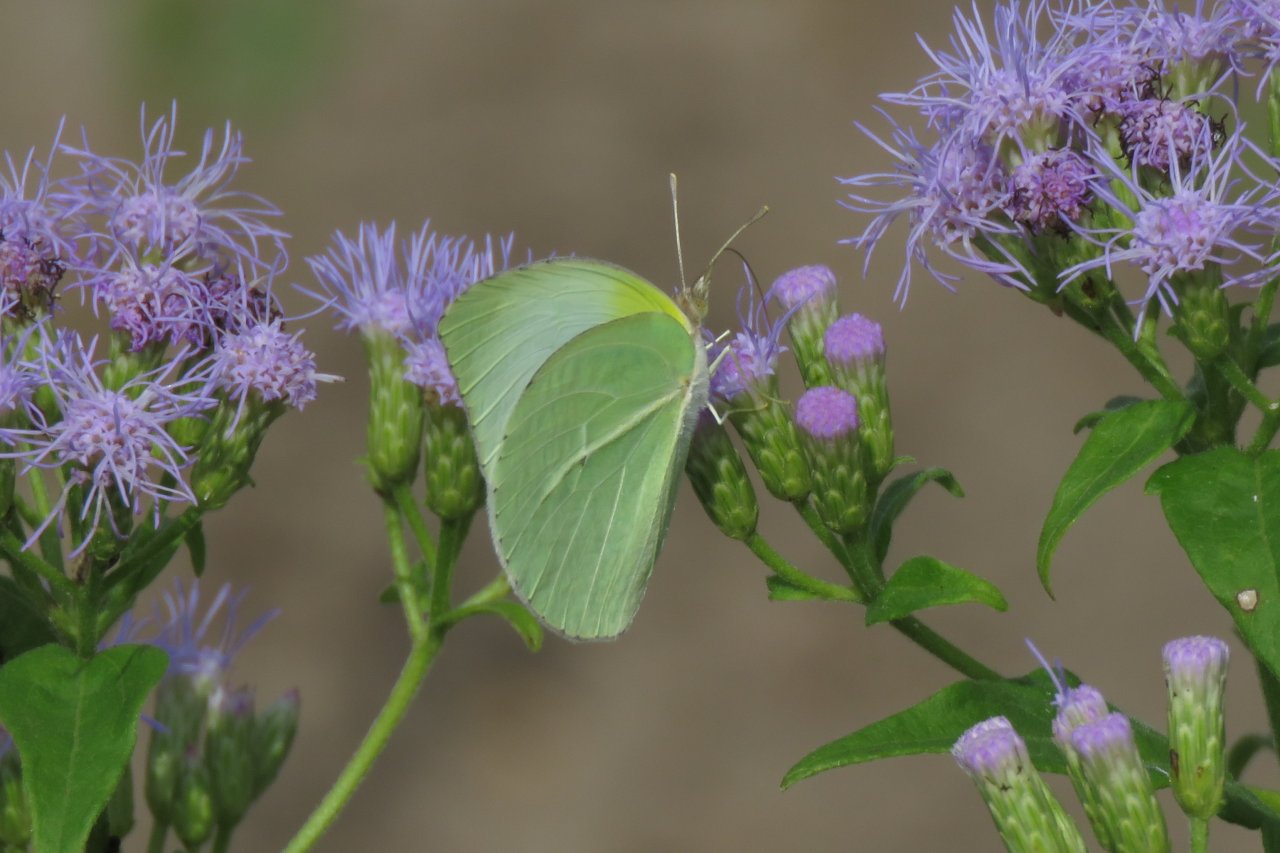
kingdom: Animalia
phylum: Arthropoda
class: Insecta
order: Lepidoptera
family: Pieridae
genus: Kricogonia
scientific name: Kricogonia lyside
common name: Lyside Sulphur
